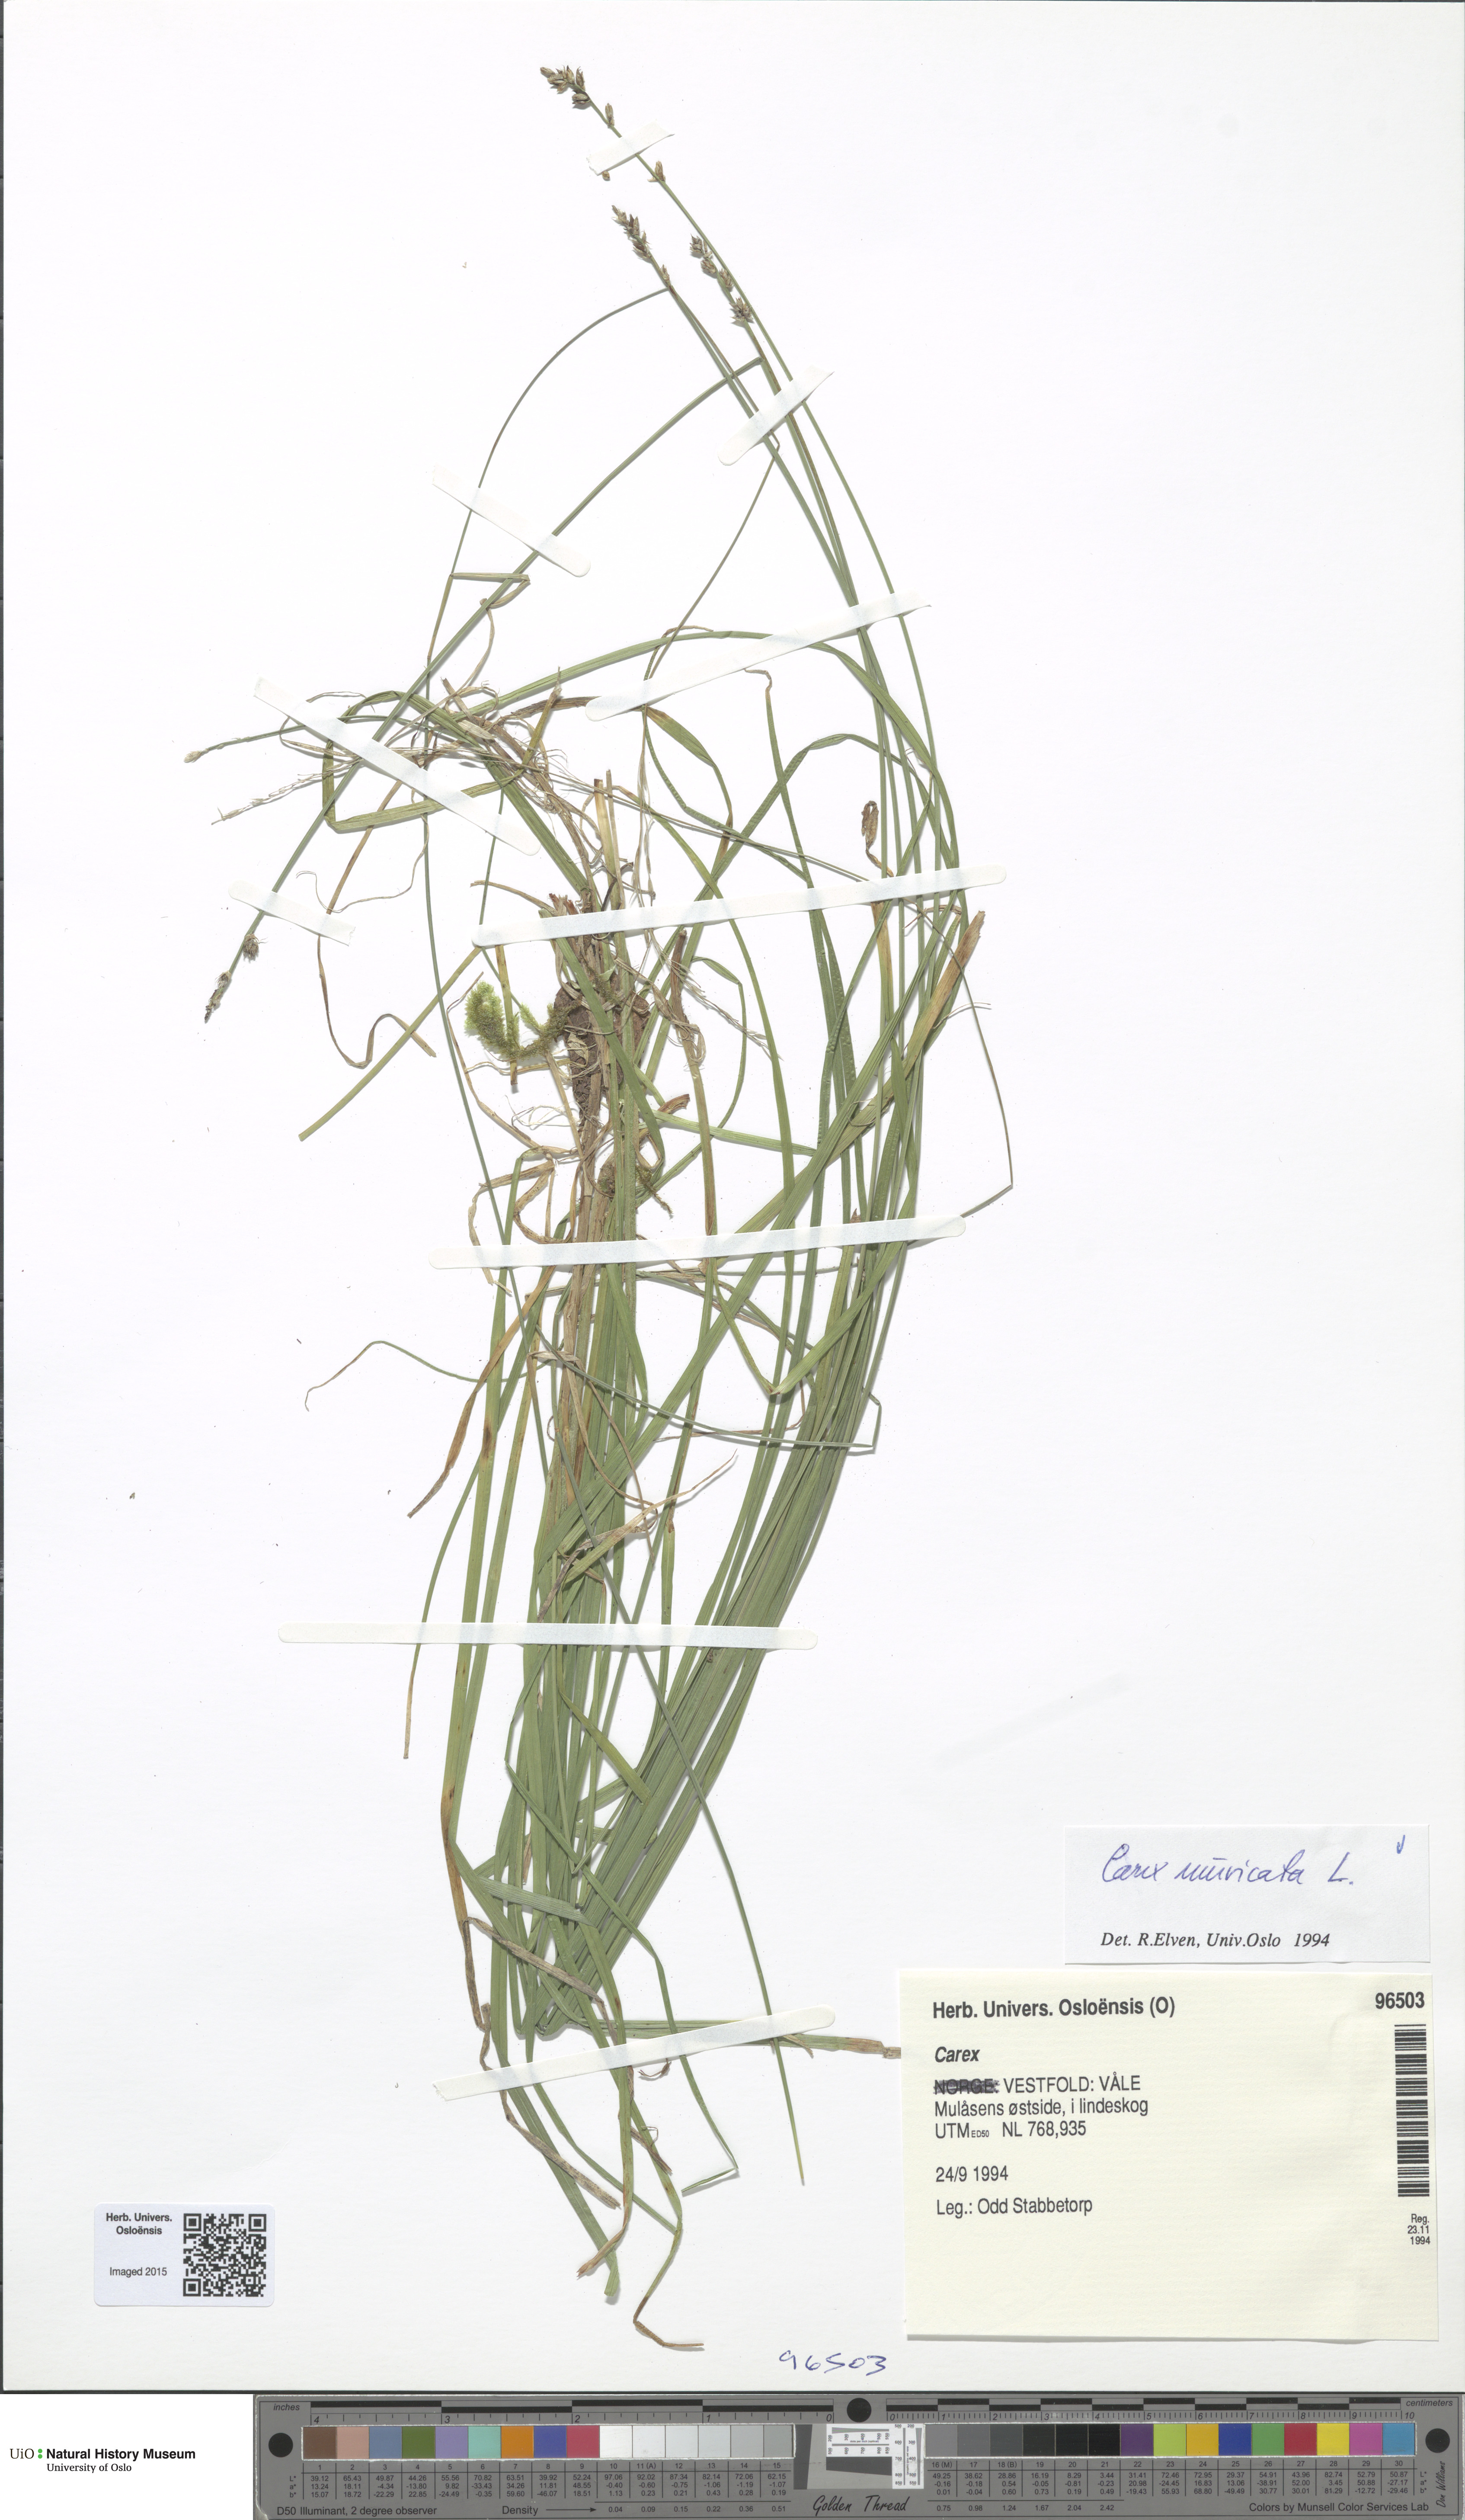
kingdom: Plantae
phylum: Tracheophyta
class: Liliopsida
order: Poales
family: Cyperaceae
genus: Carex
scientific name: Carex muricata
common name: Rough sedge
